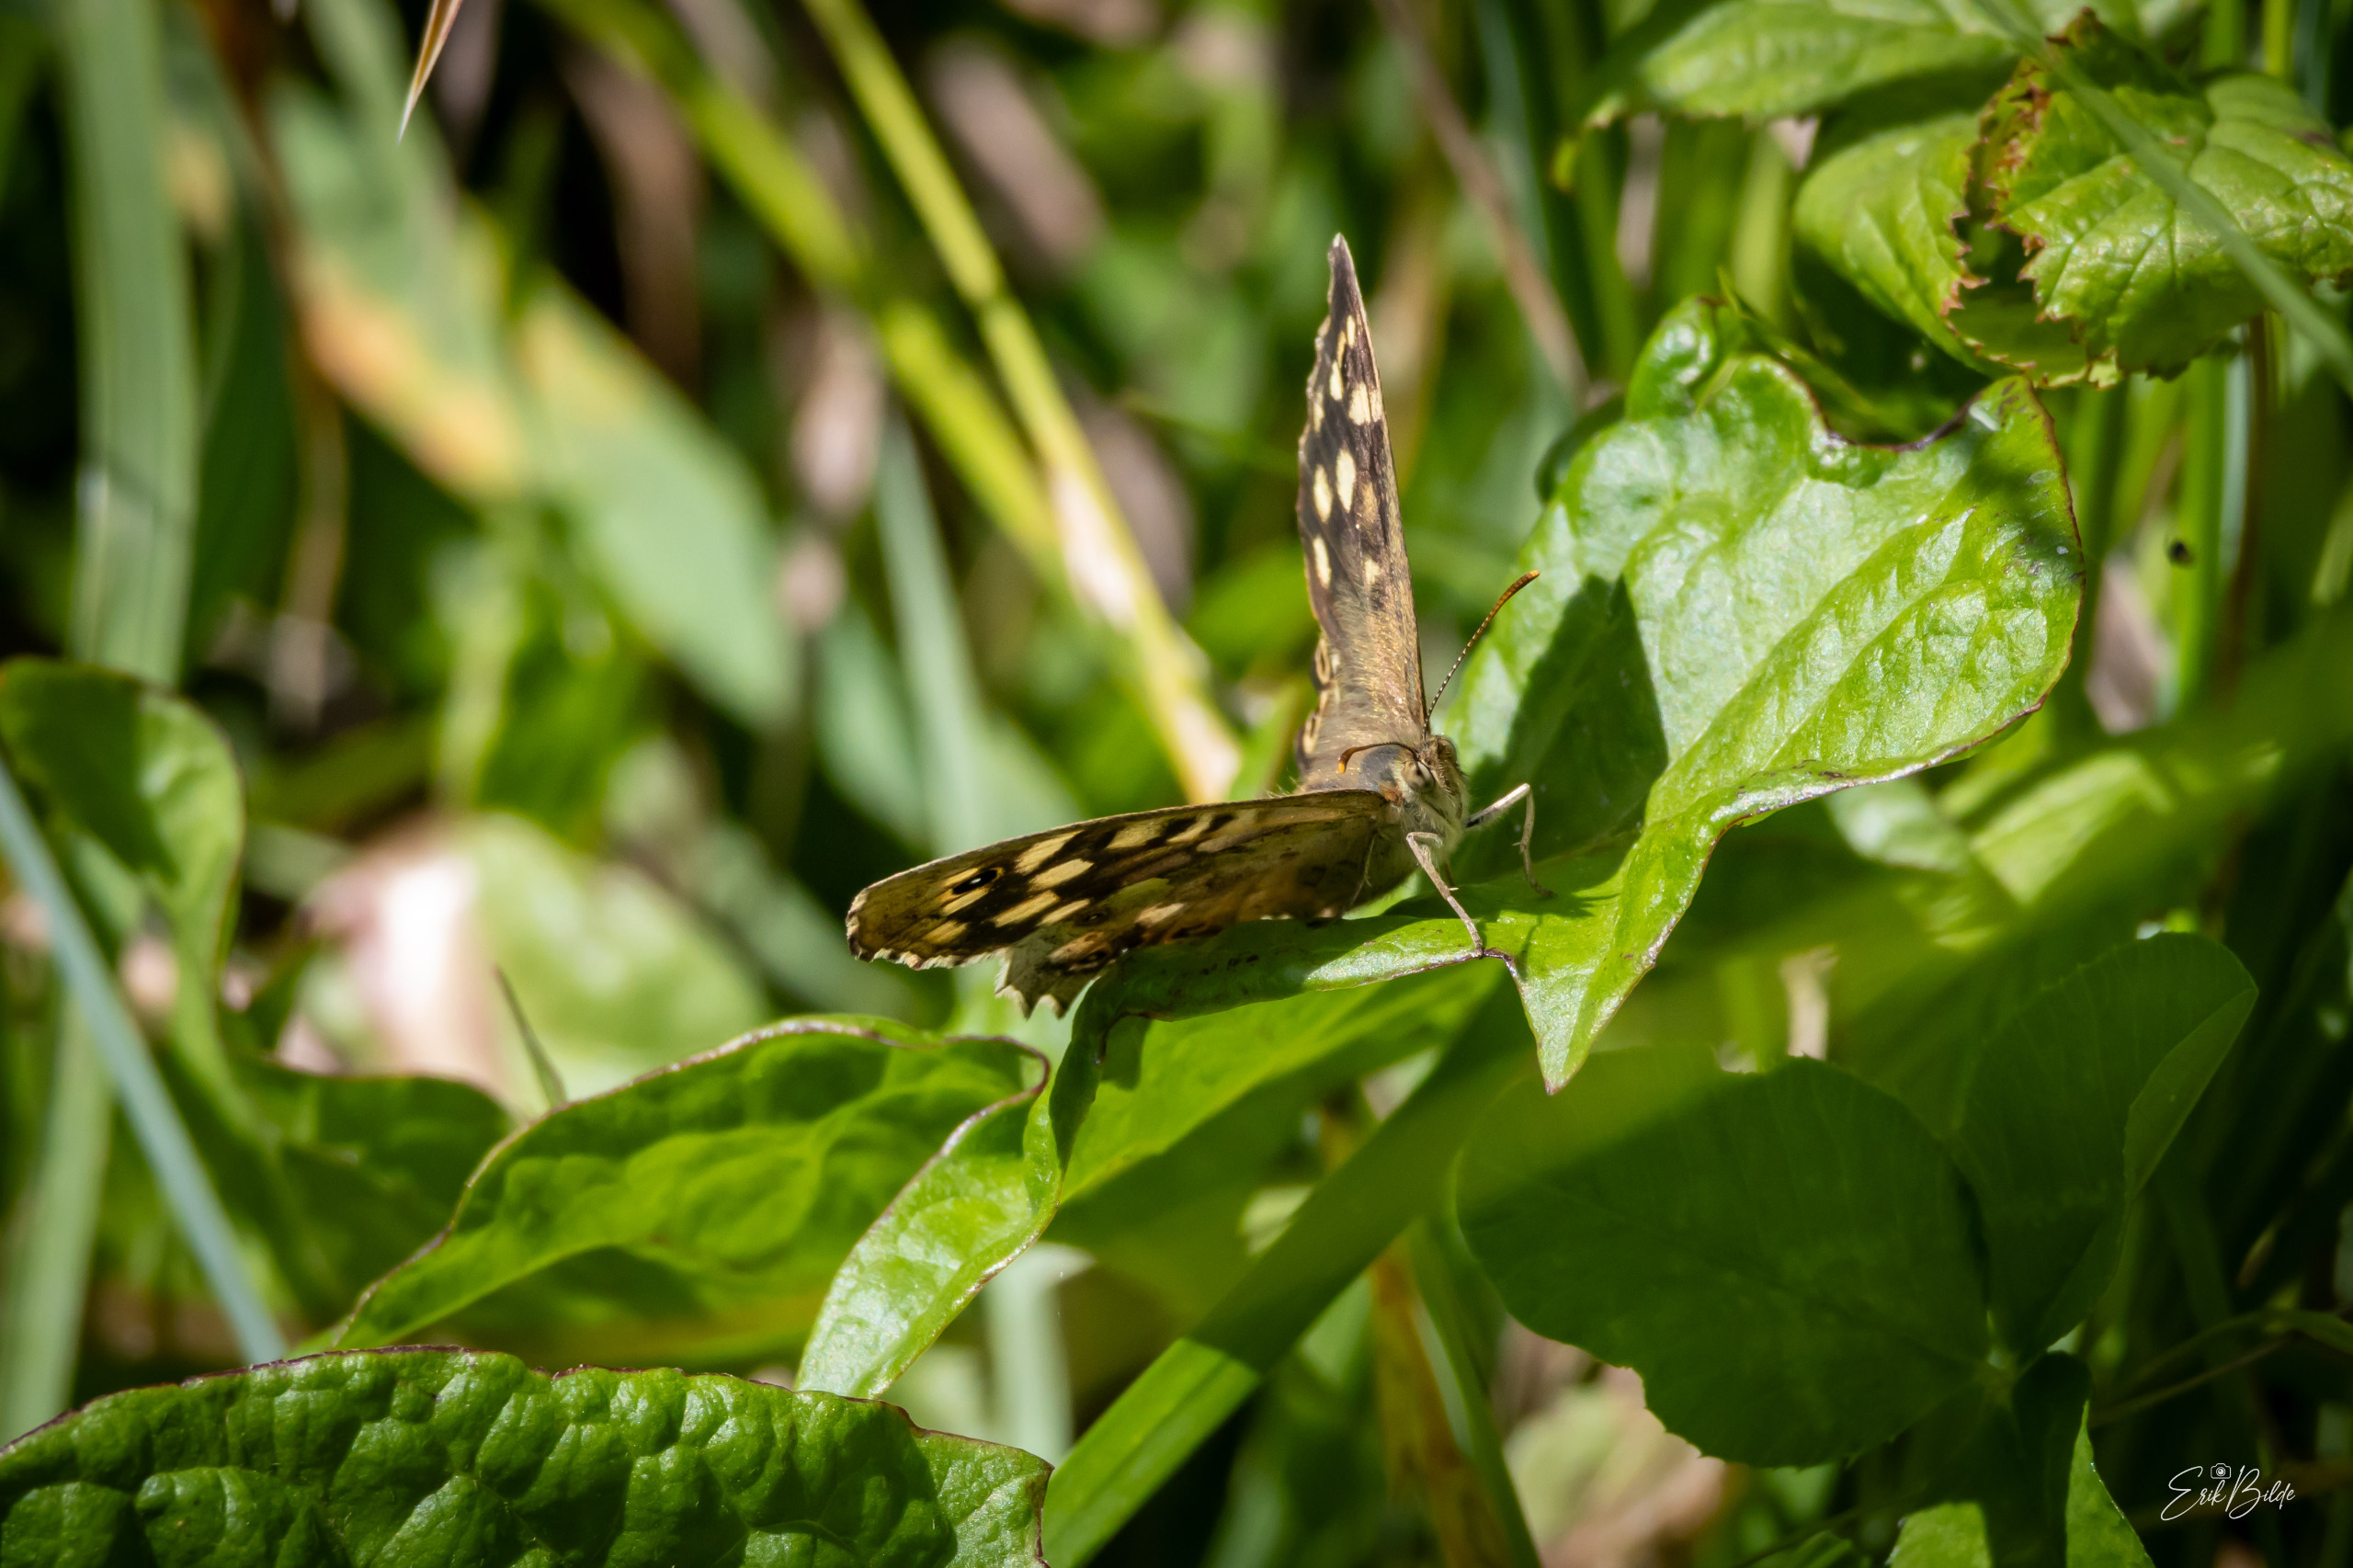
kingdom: Animalia
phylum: Arthropoda
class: Insecta
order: Lepidoptera
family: Nymphalidae
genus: Pararge
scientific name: Pararge aegeria
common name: Skovrandøje
